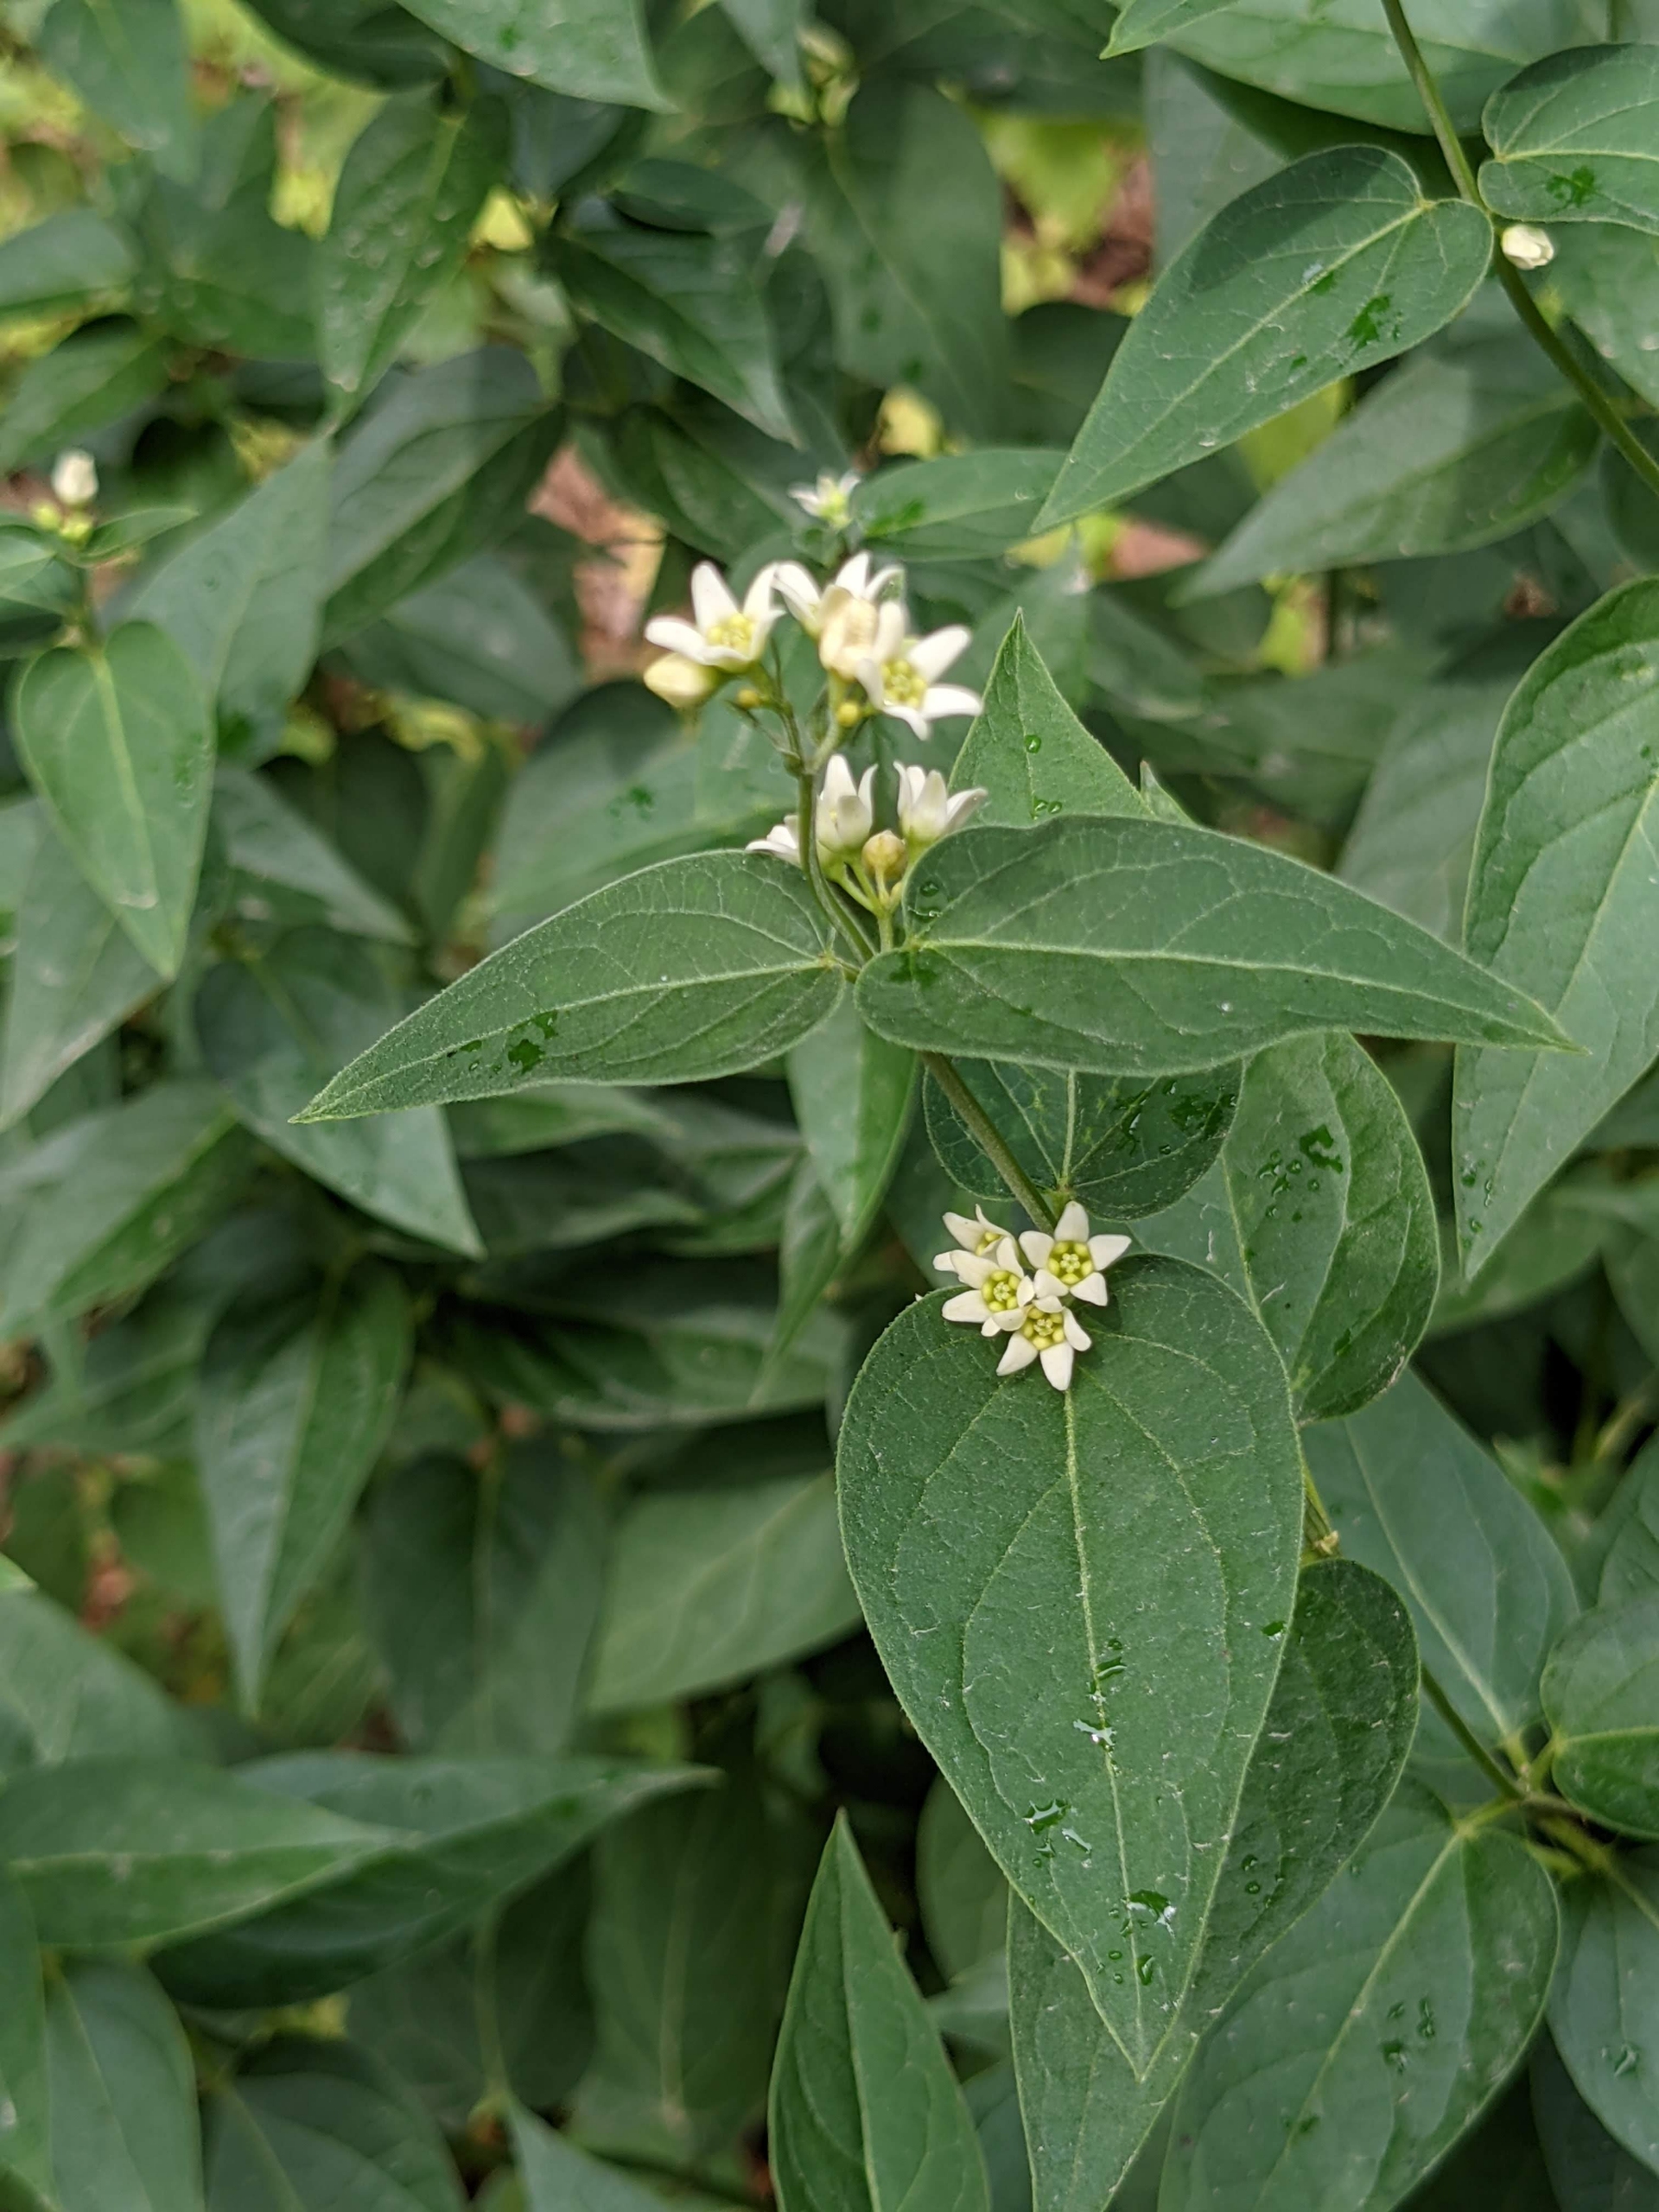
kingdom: Plantae
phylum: Tracheophyta
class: Magnoliopsida
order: Gentianales
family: Apocynaceae
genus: Vincetoxicum
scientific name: Vincetoxicum hirundinaria
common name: Svalerod
